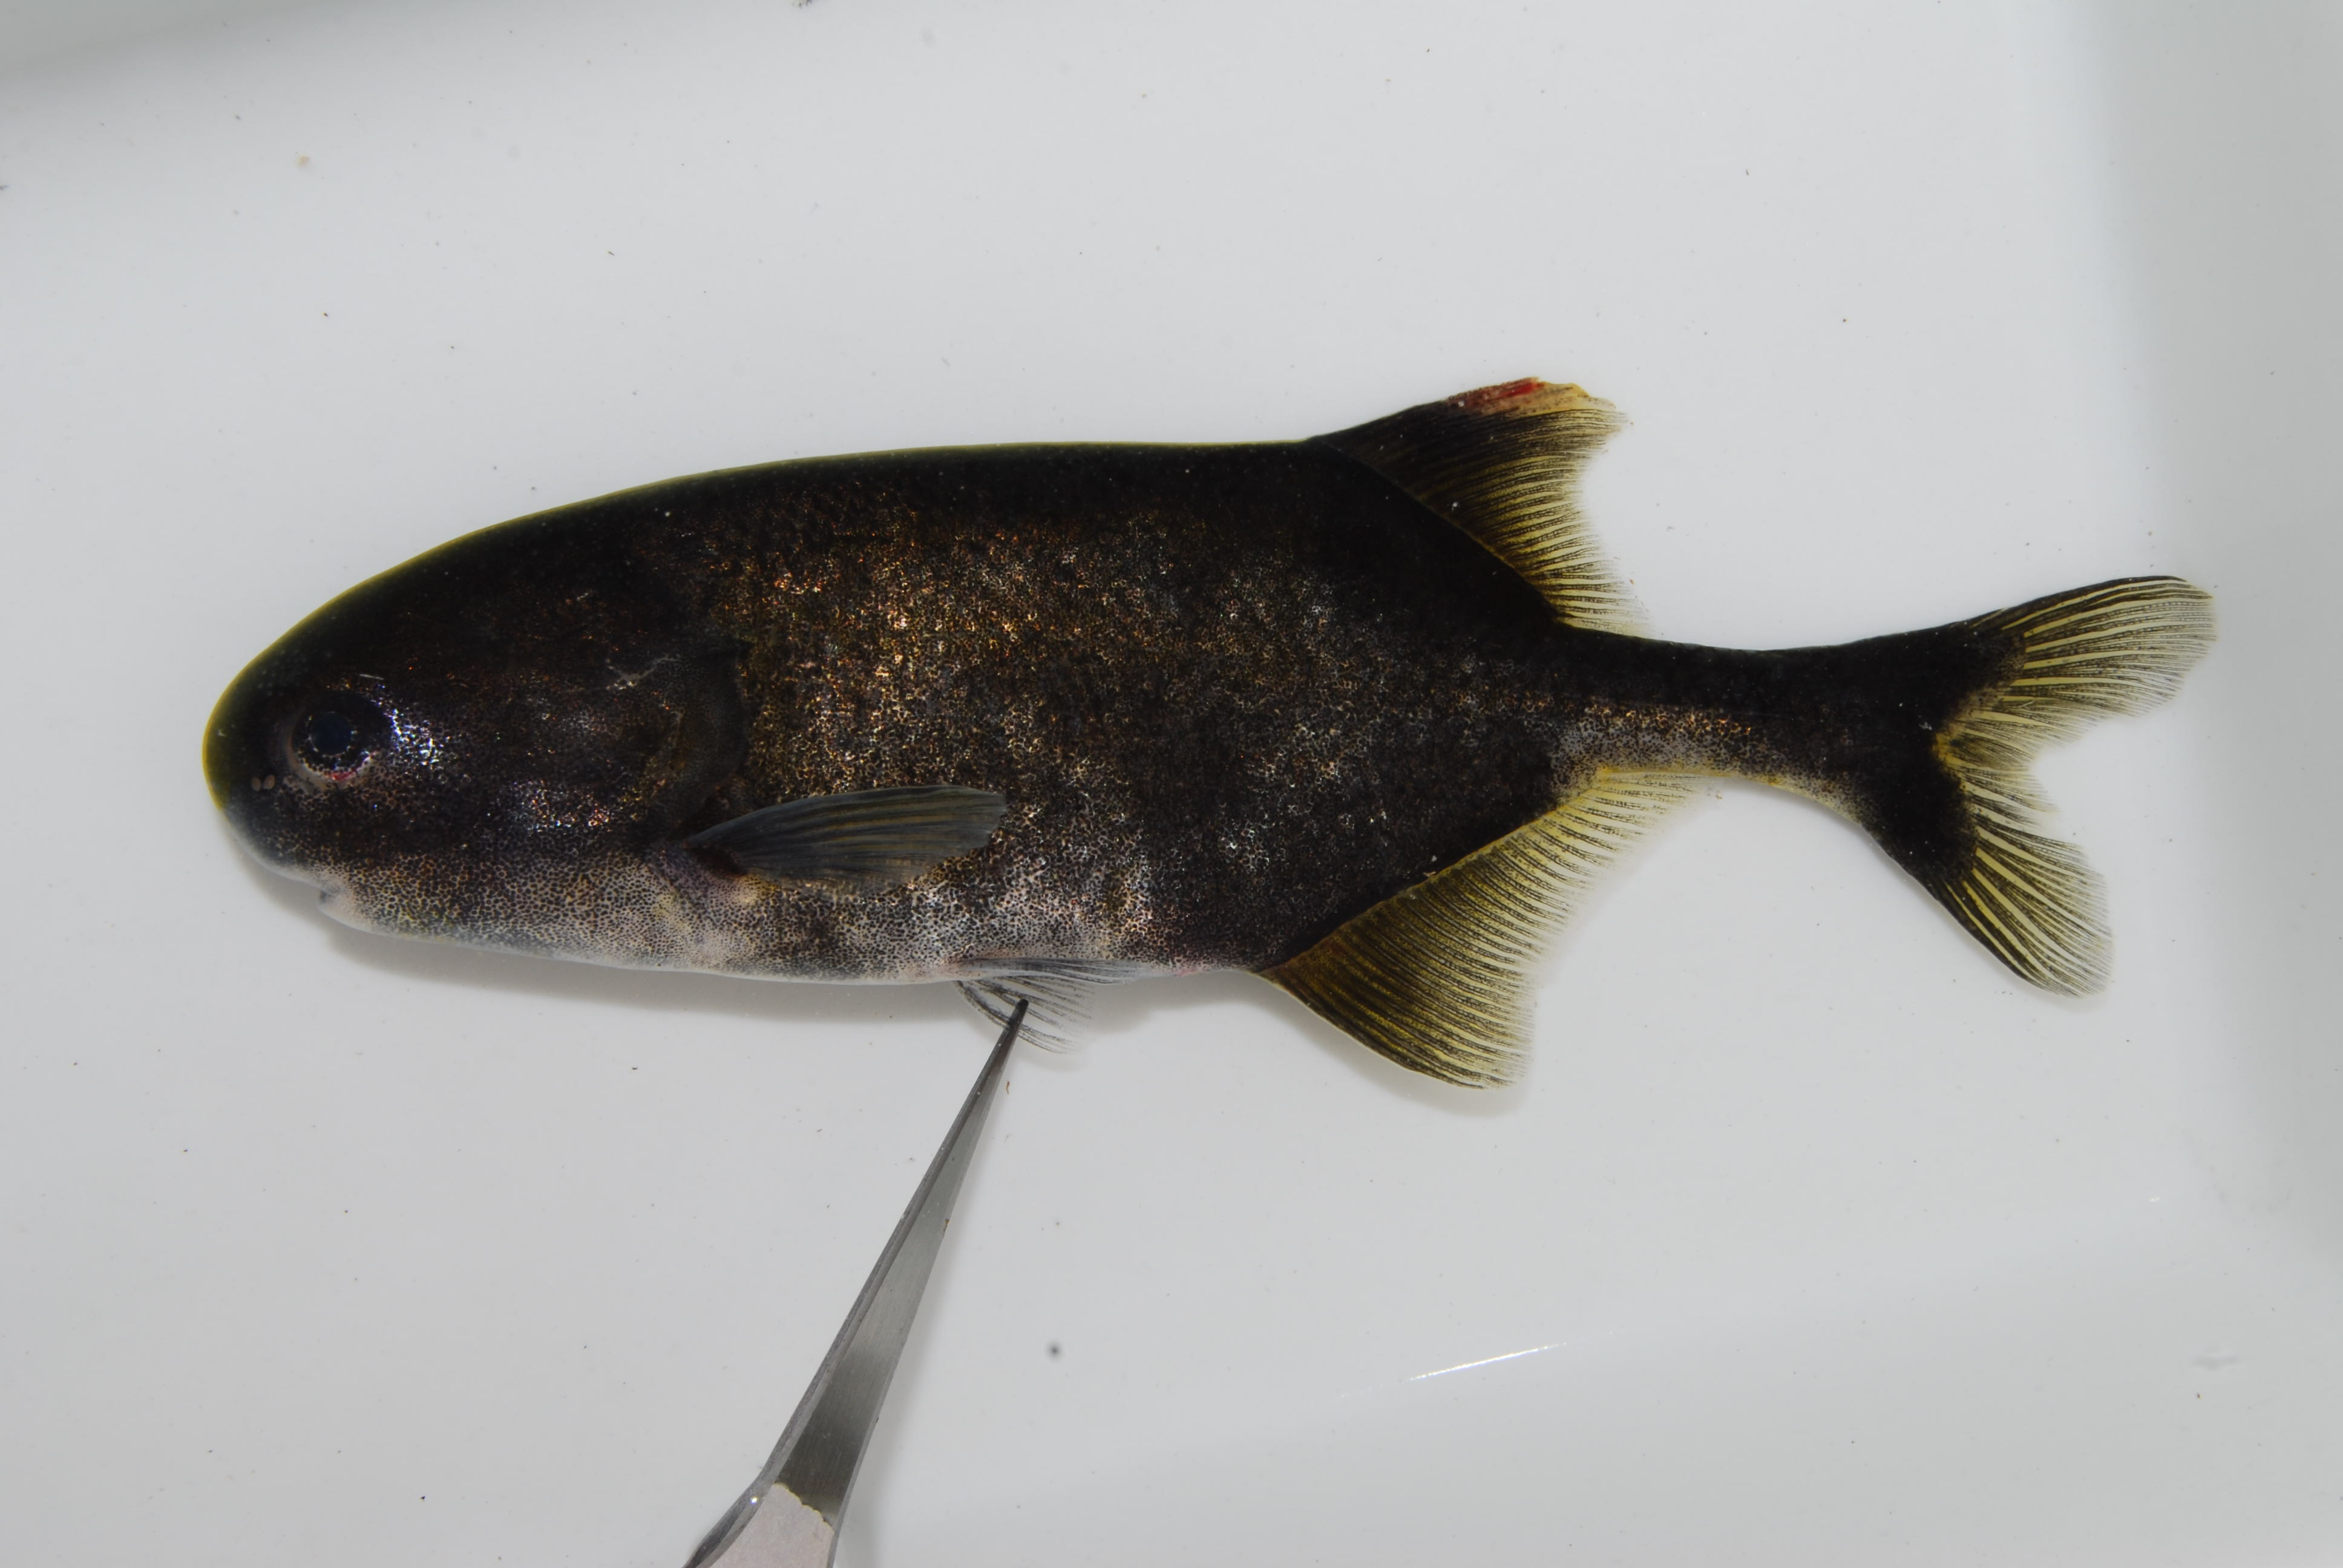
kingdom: Animalia
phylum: Chordata
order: Osteoglossiformes
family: Mormyridae
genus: Petrocephalus
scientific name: Petrocephalus
